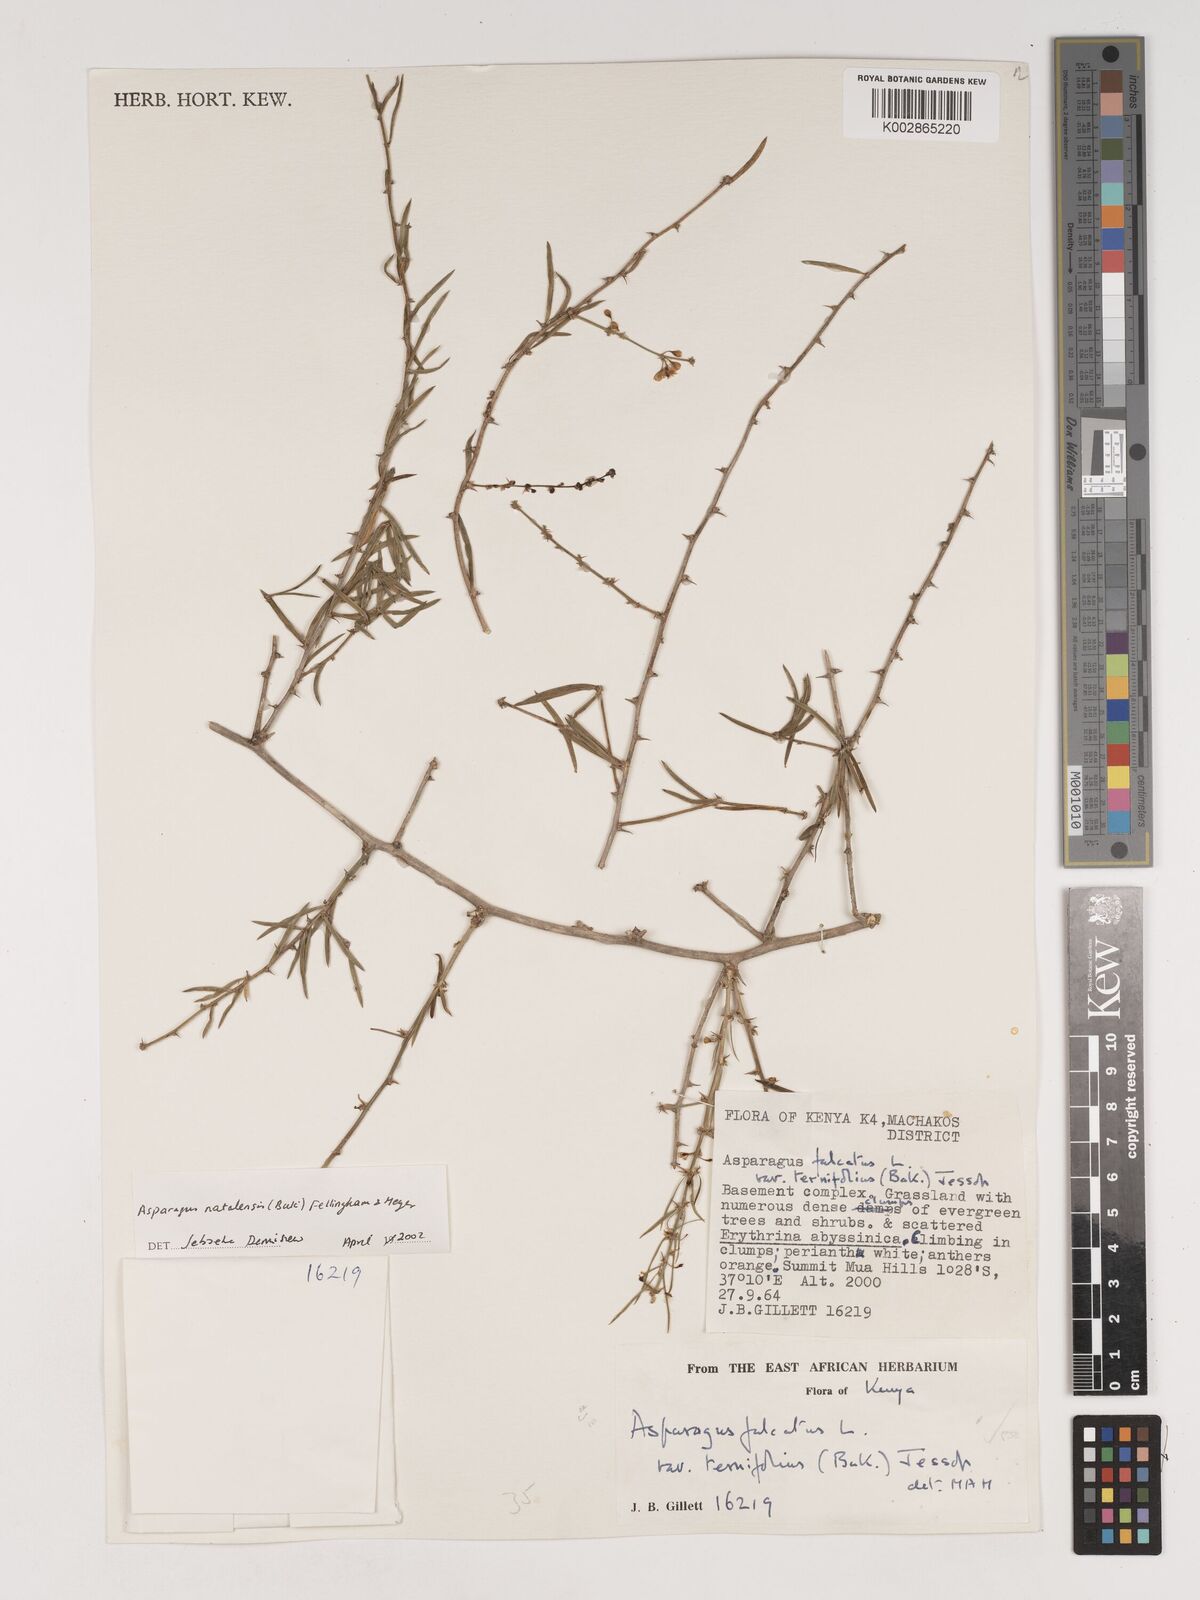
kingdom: Plantae
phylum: Tracheophyta
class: Liliopsida
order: Asparagales
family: Asparagaceae
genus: Asparagus
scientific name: Asparagus natalensis
